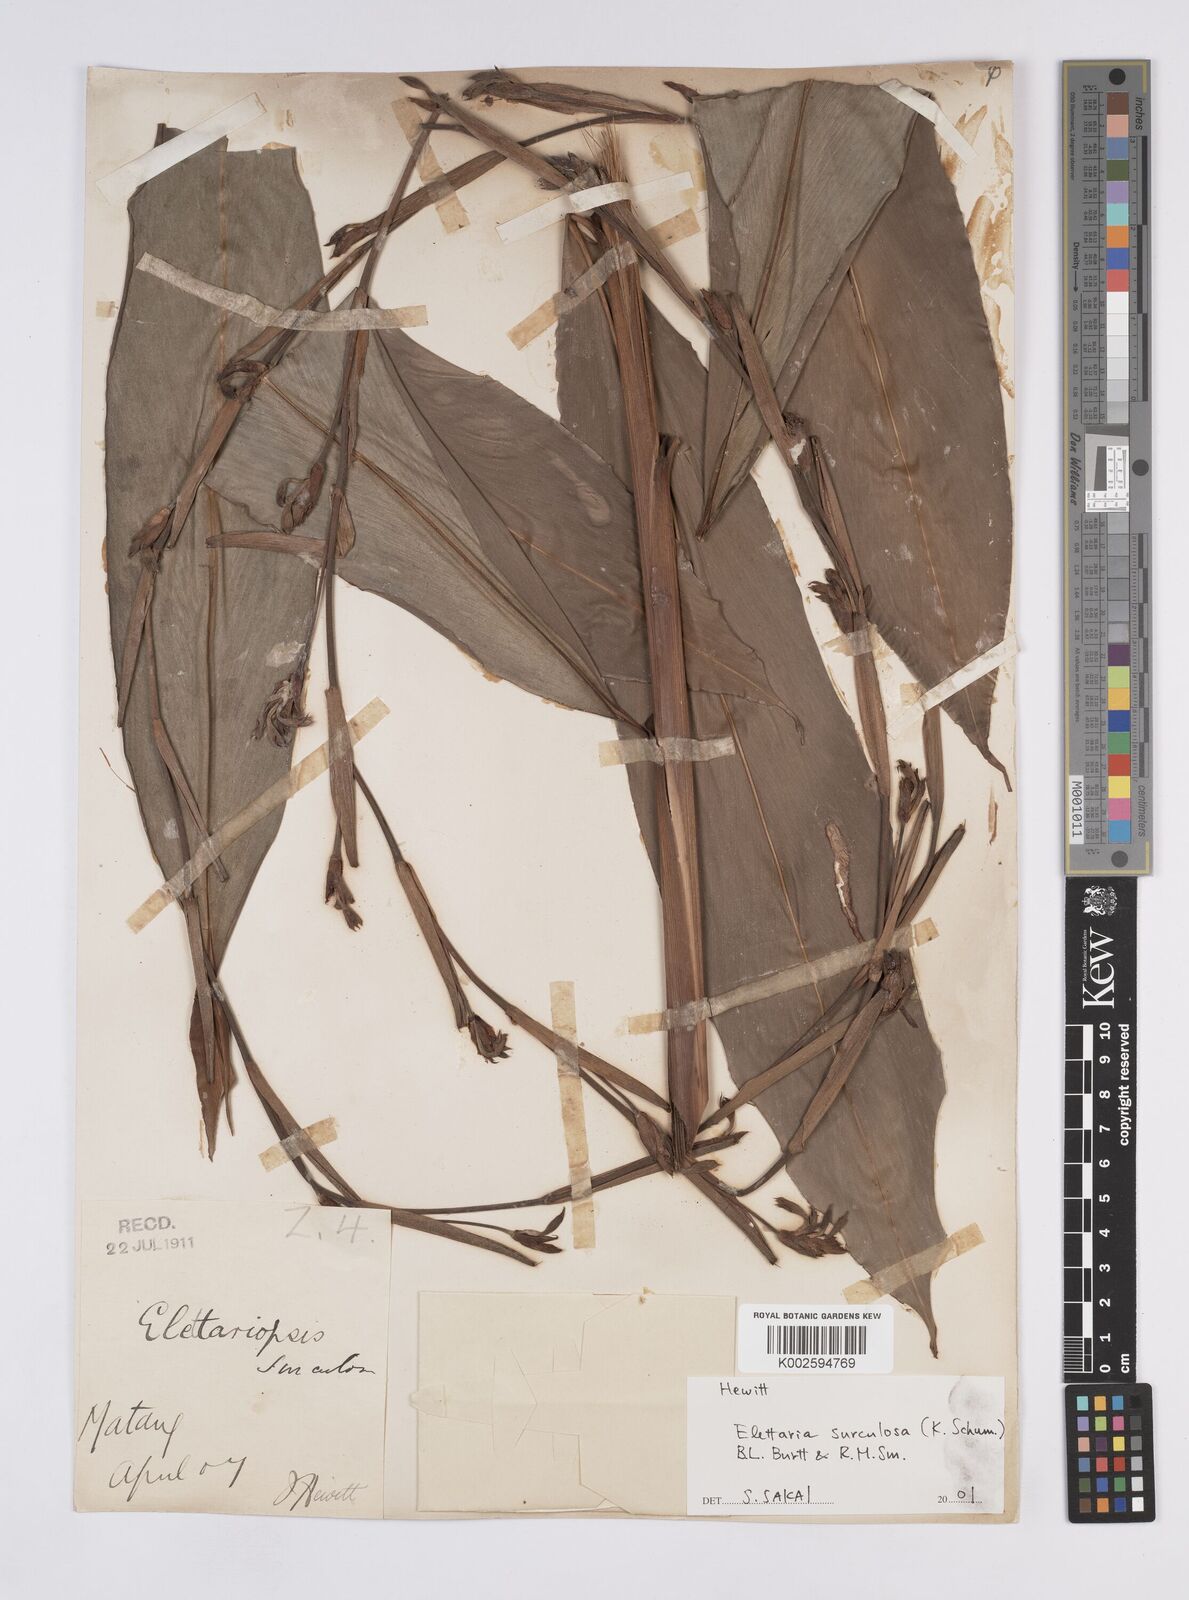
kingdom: Plantae
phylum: Tracheophyta
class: Liliopsida
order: Zingiberales
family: Zingiberaceae
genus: Sulettaria
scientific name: Sulettaria multiflora
